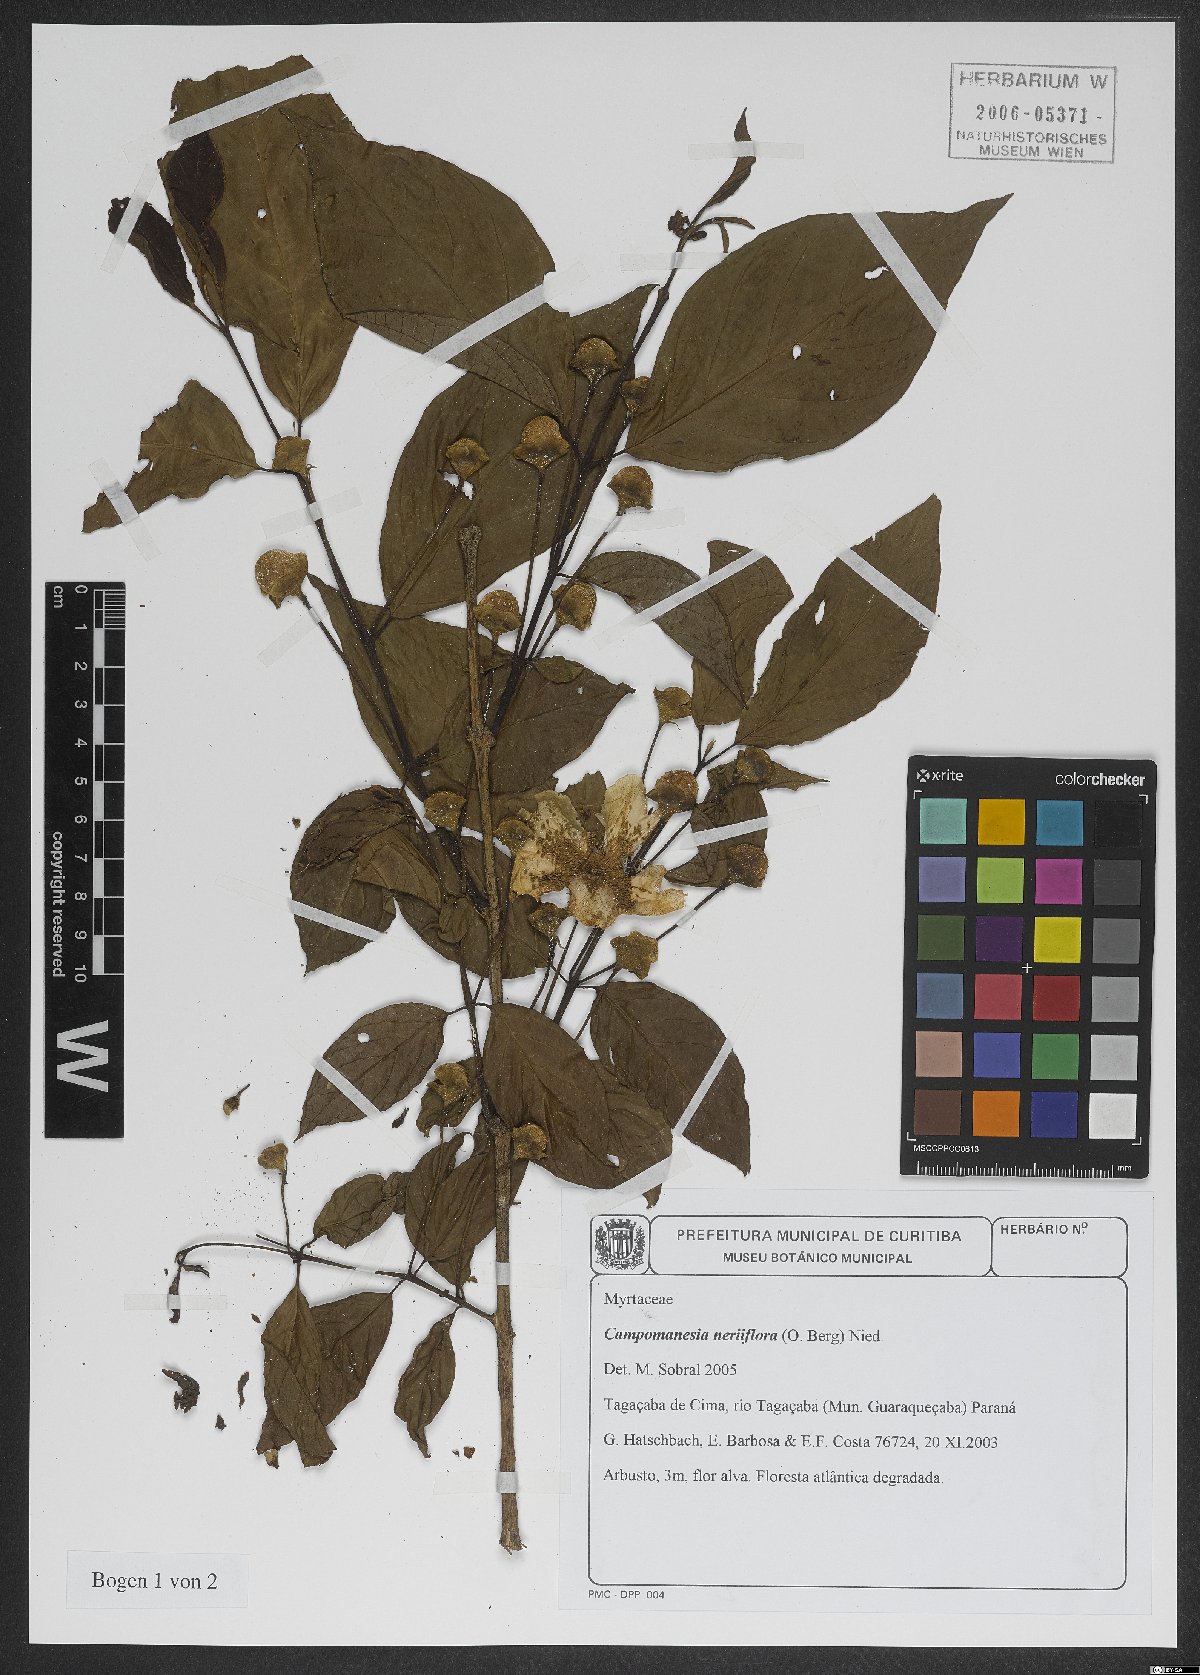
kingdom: Plantae
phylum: Tracheophyta
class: Magnoliopsida
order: Myrtales
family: Myrtaceae
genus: Campomanesia
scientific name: Campomanesia neriiflora
